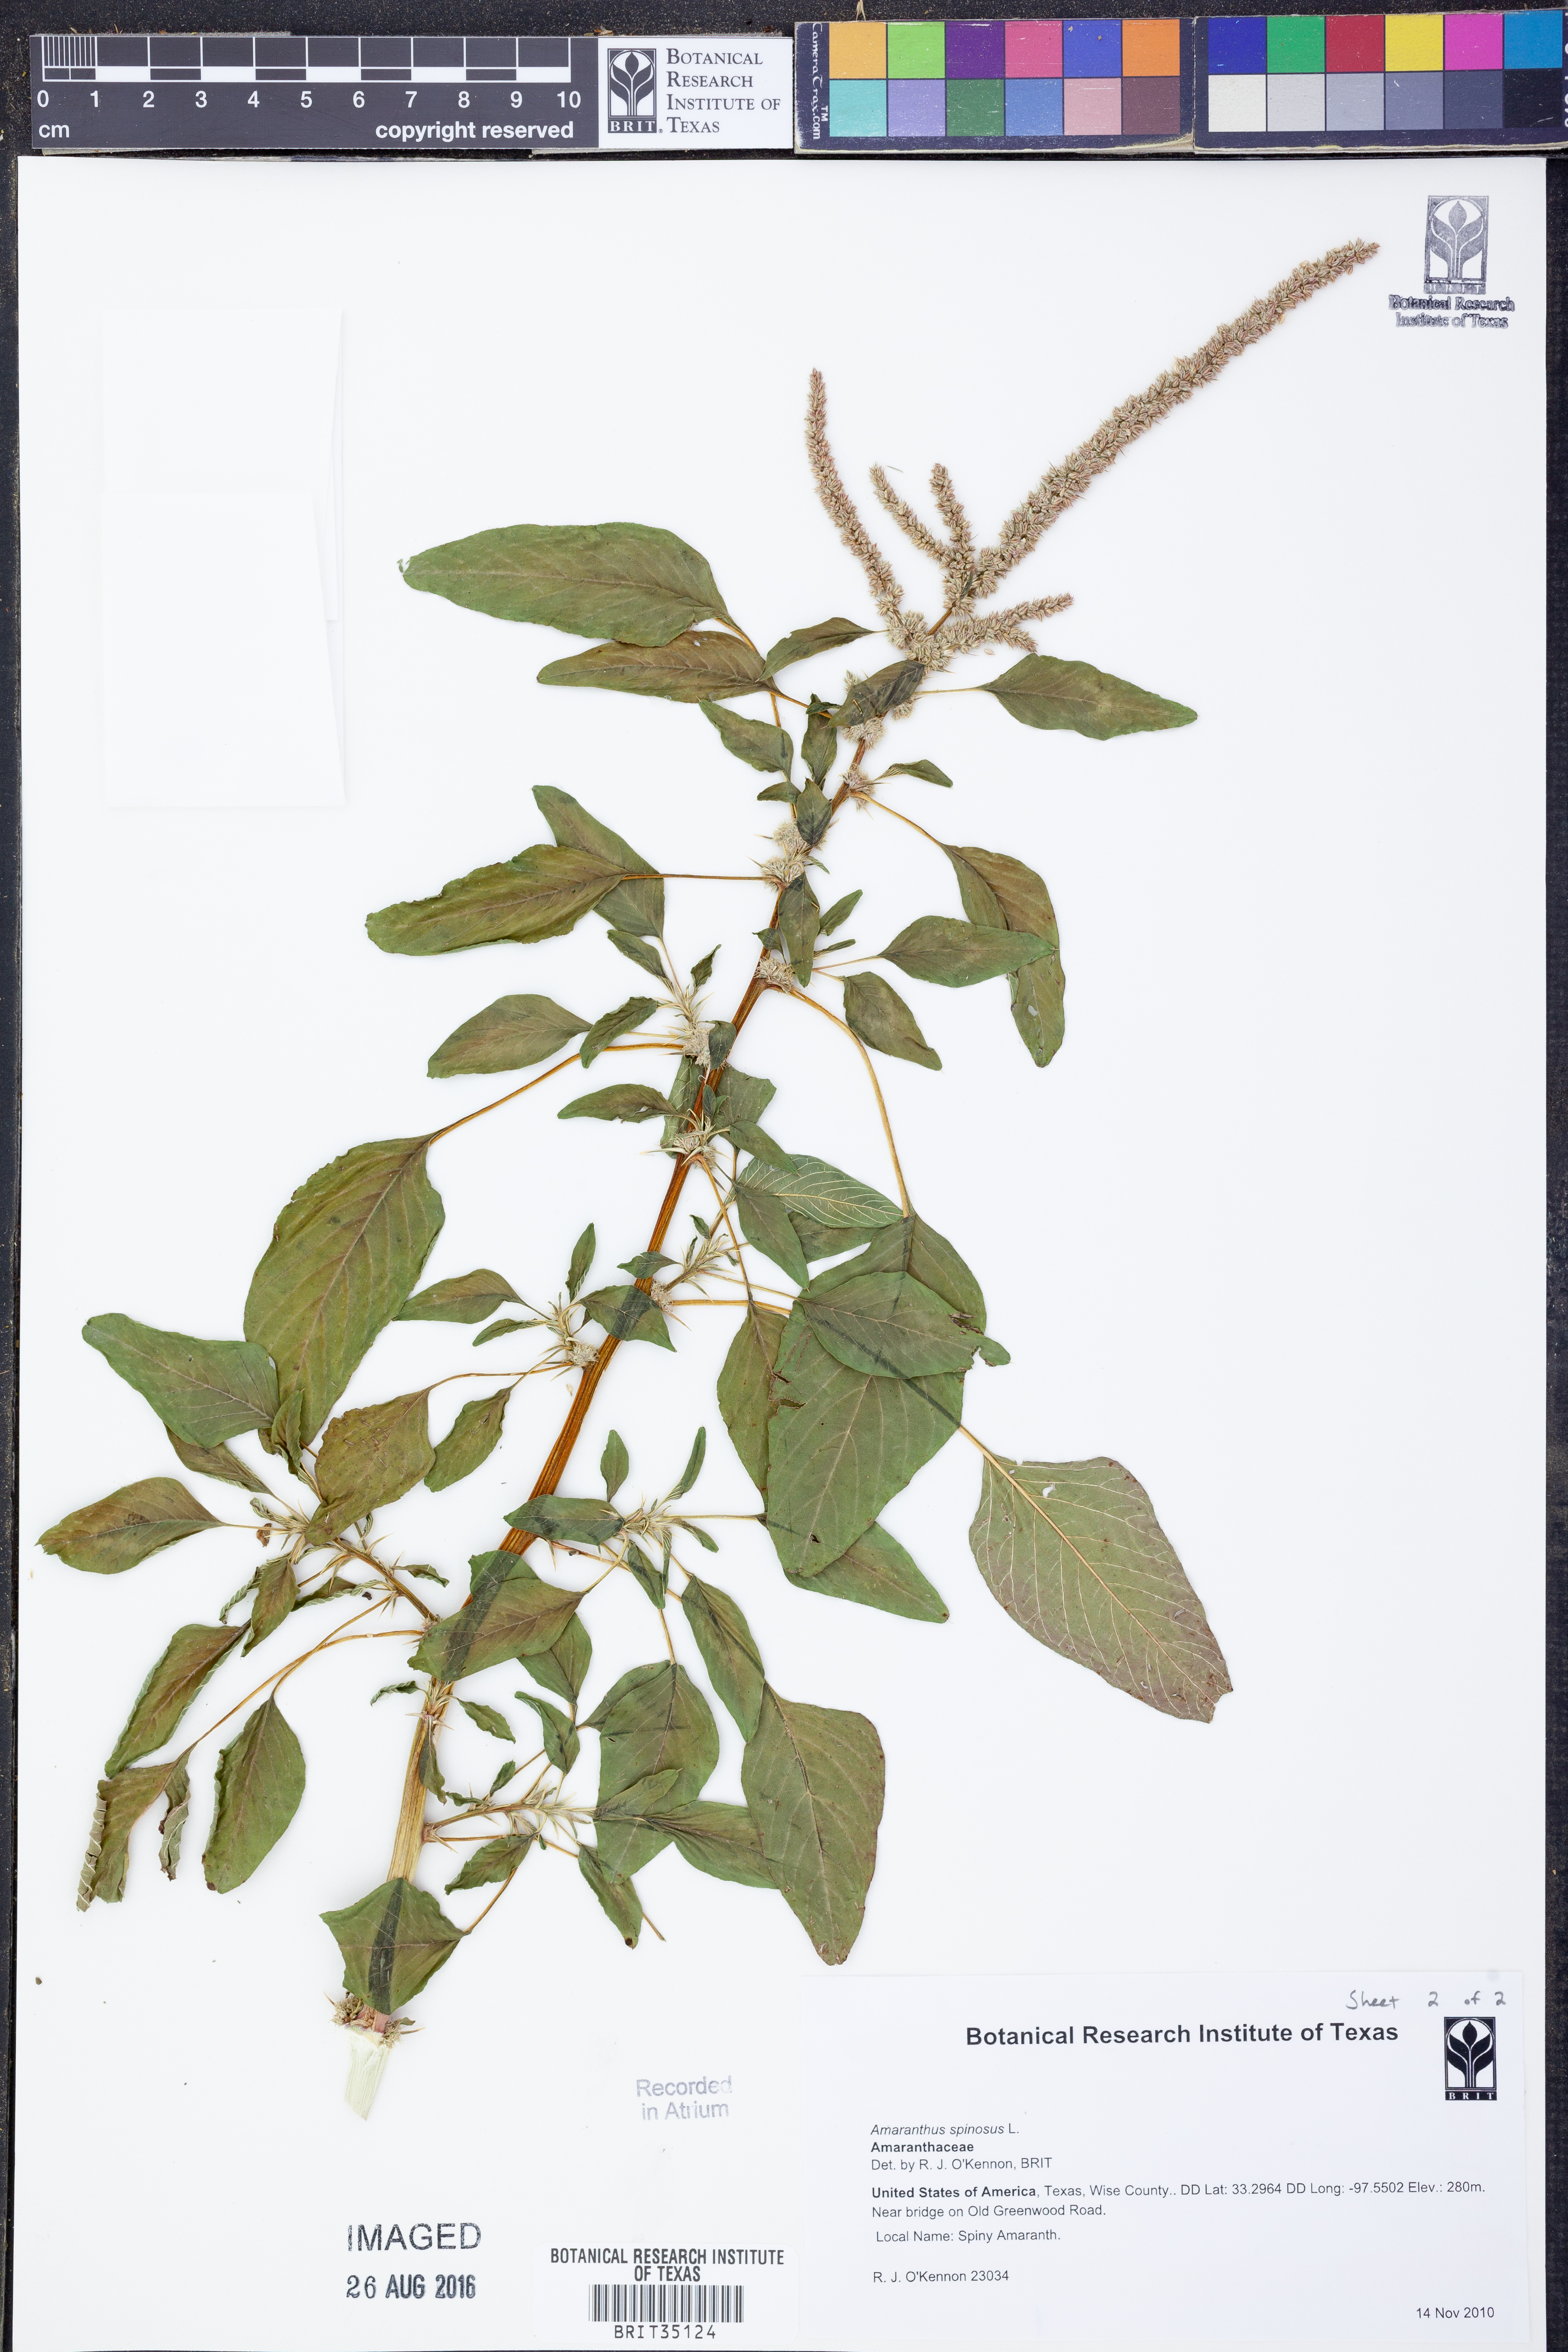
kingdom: Plantae
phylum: Tracheophyta
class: Magnoliopsida
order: Caryophyllales
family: Amaranthaceae
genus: Amaranthus
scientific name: Amaranthus spinosus
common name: Spiny amaranth
